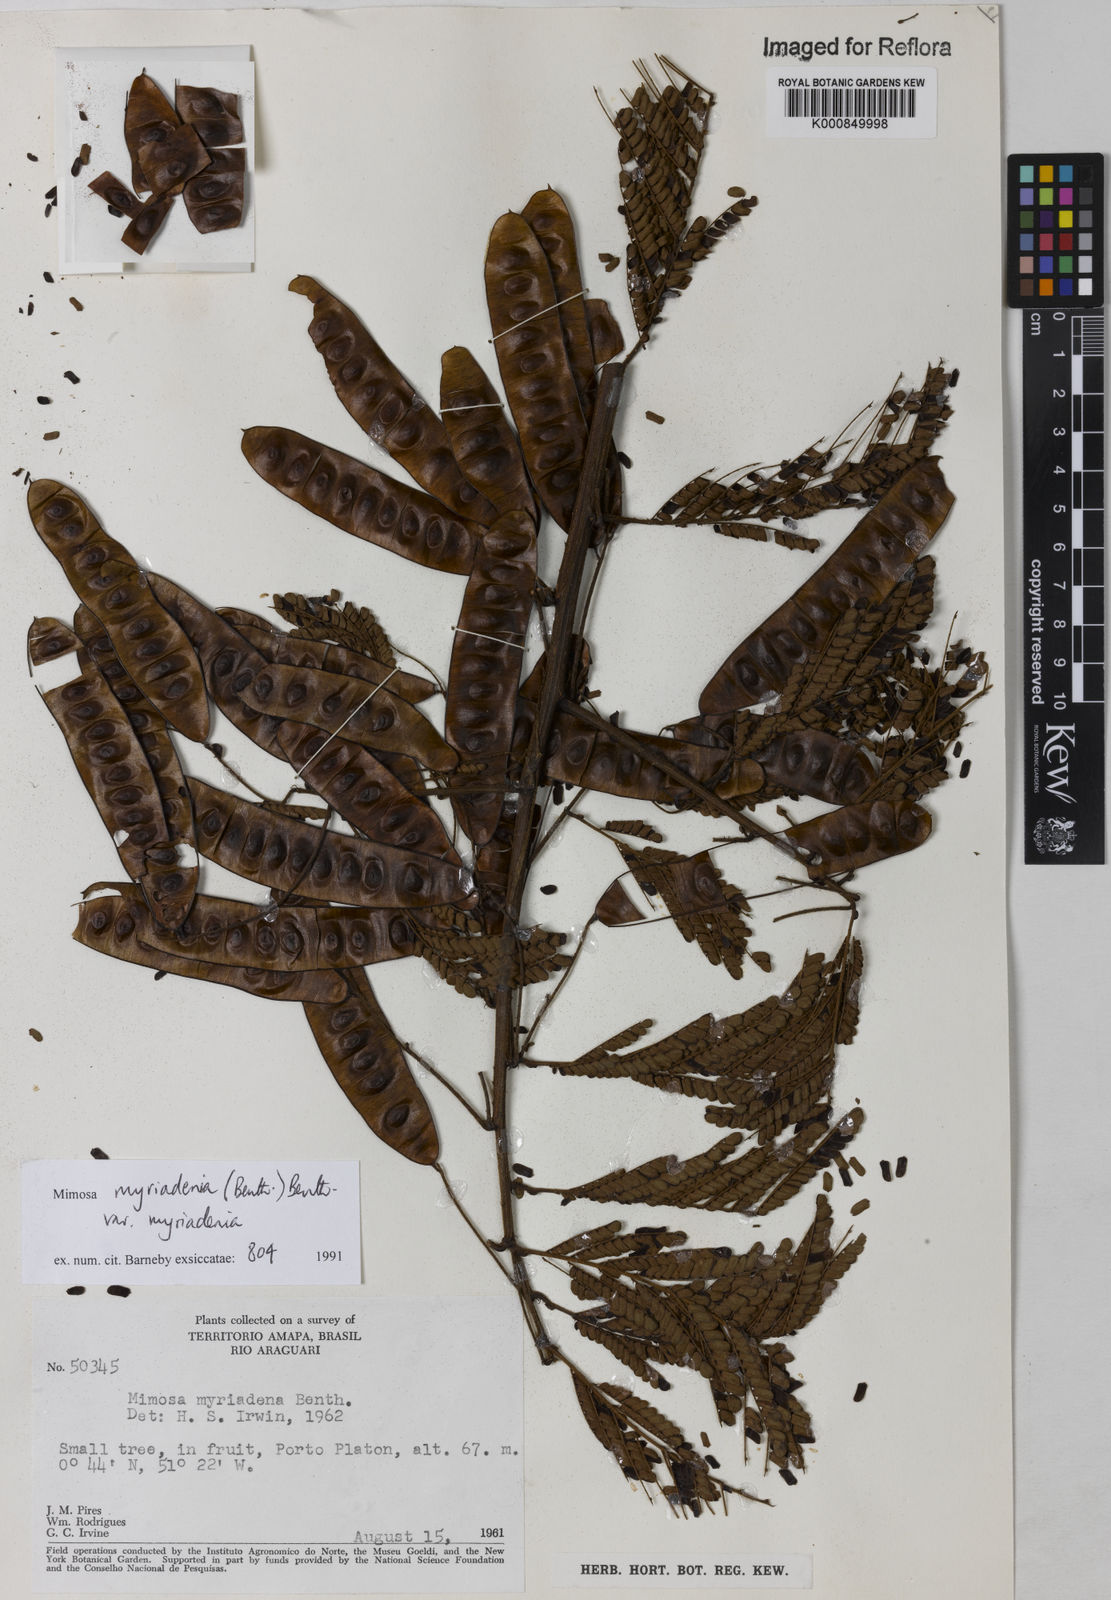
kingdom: Plantae
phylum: Tracheophyta
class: Magnoliopsida
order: Fabales
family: Fabaceae
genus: Mimosa
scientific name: Mimosa myriadenia
